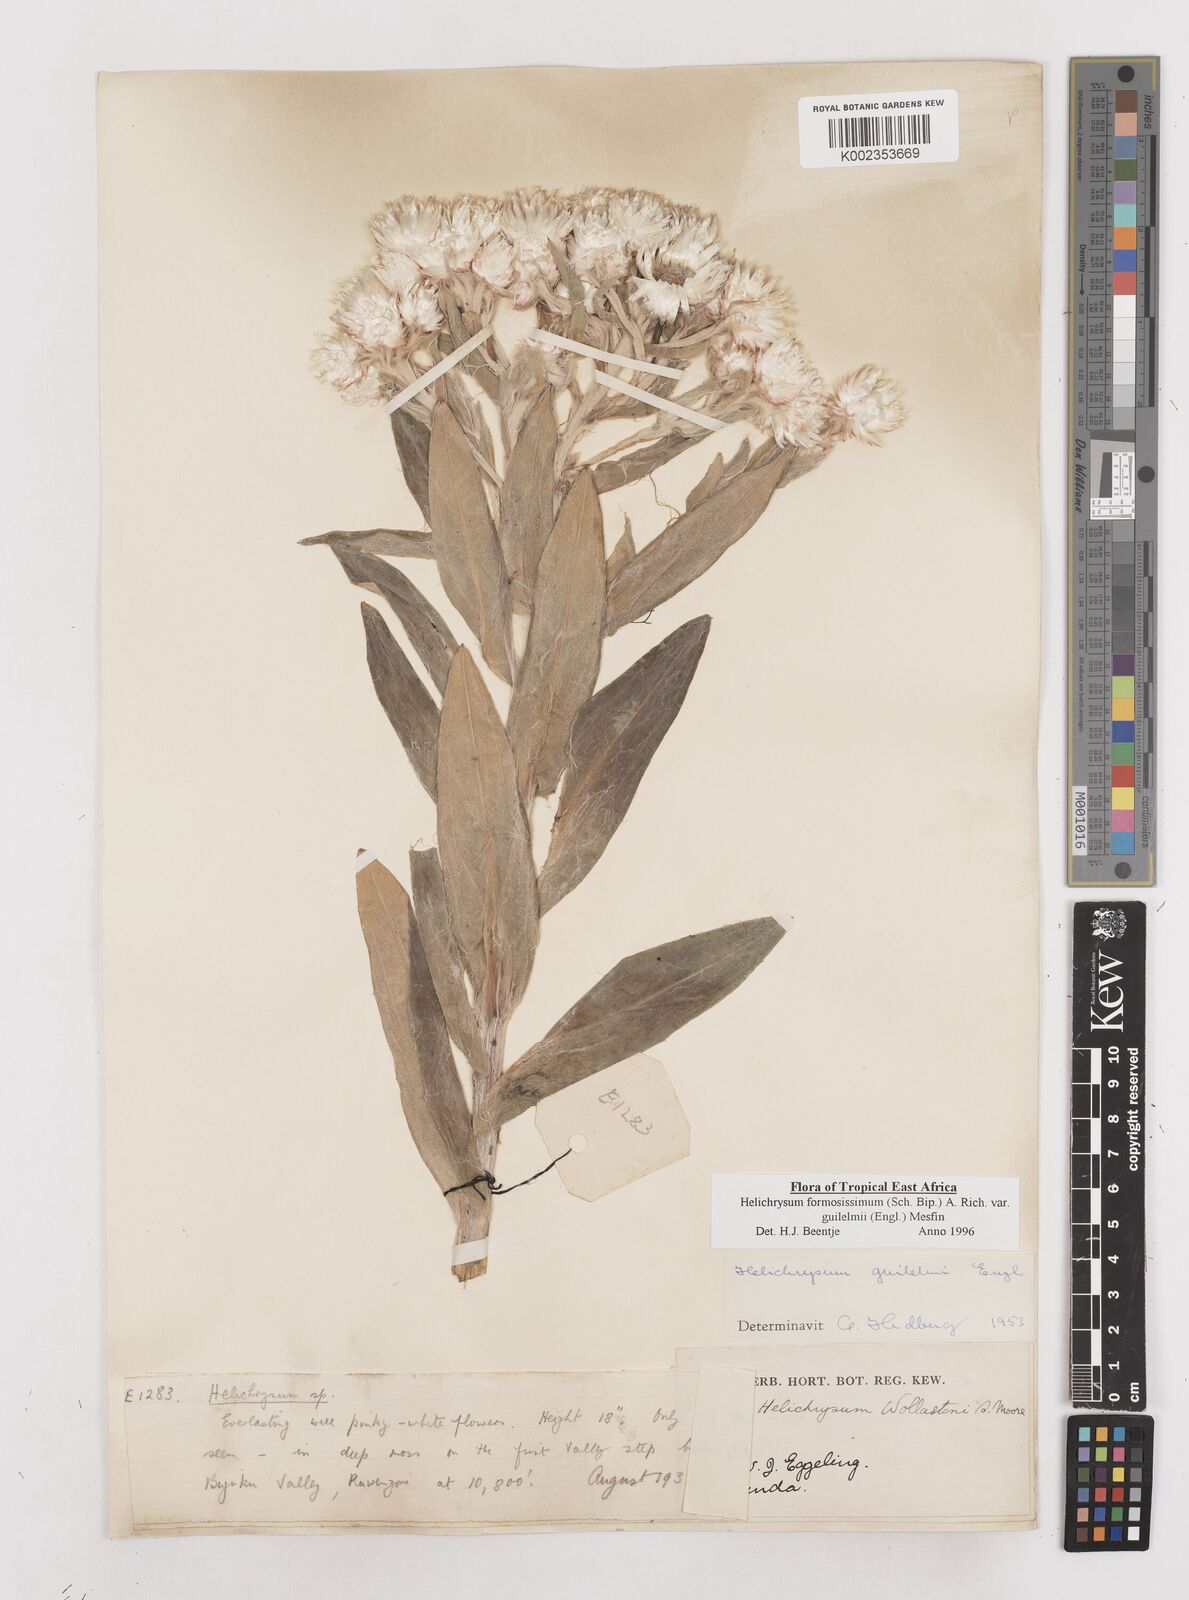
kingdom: Plantae
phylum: Tracheophyta
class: Magnoliopsida
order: Asterales
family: Asteraceae
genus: Helichrysum
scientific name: Helichrysum formosissimum
